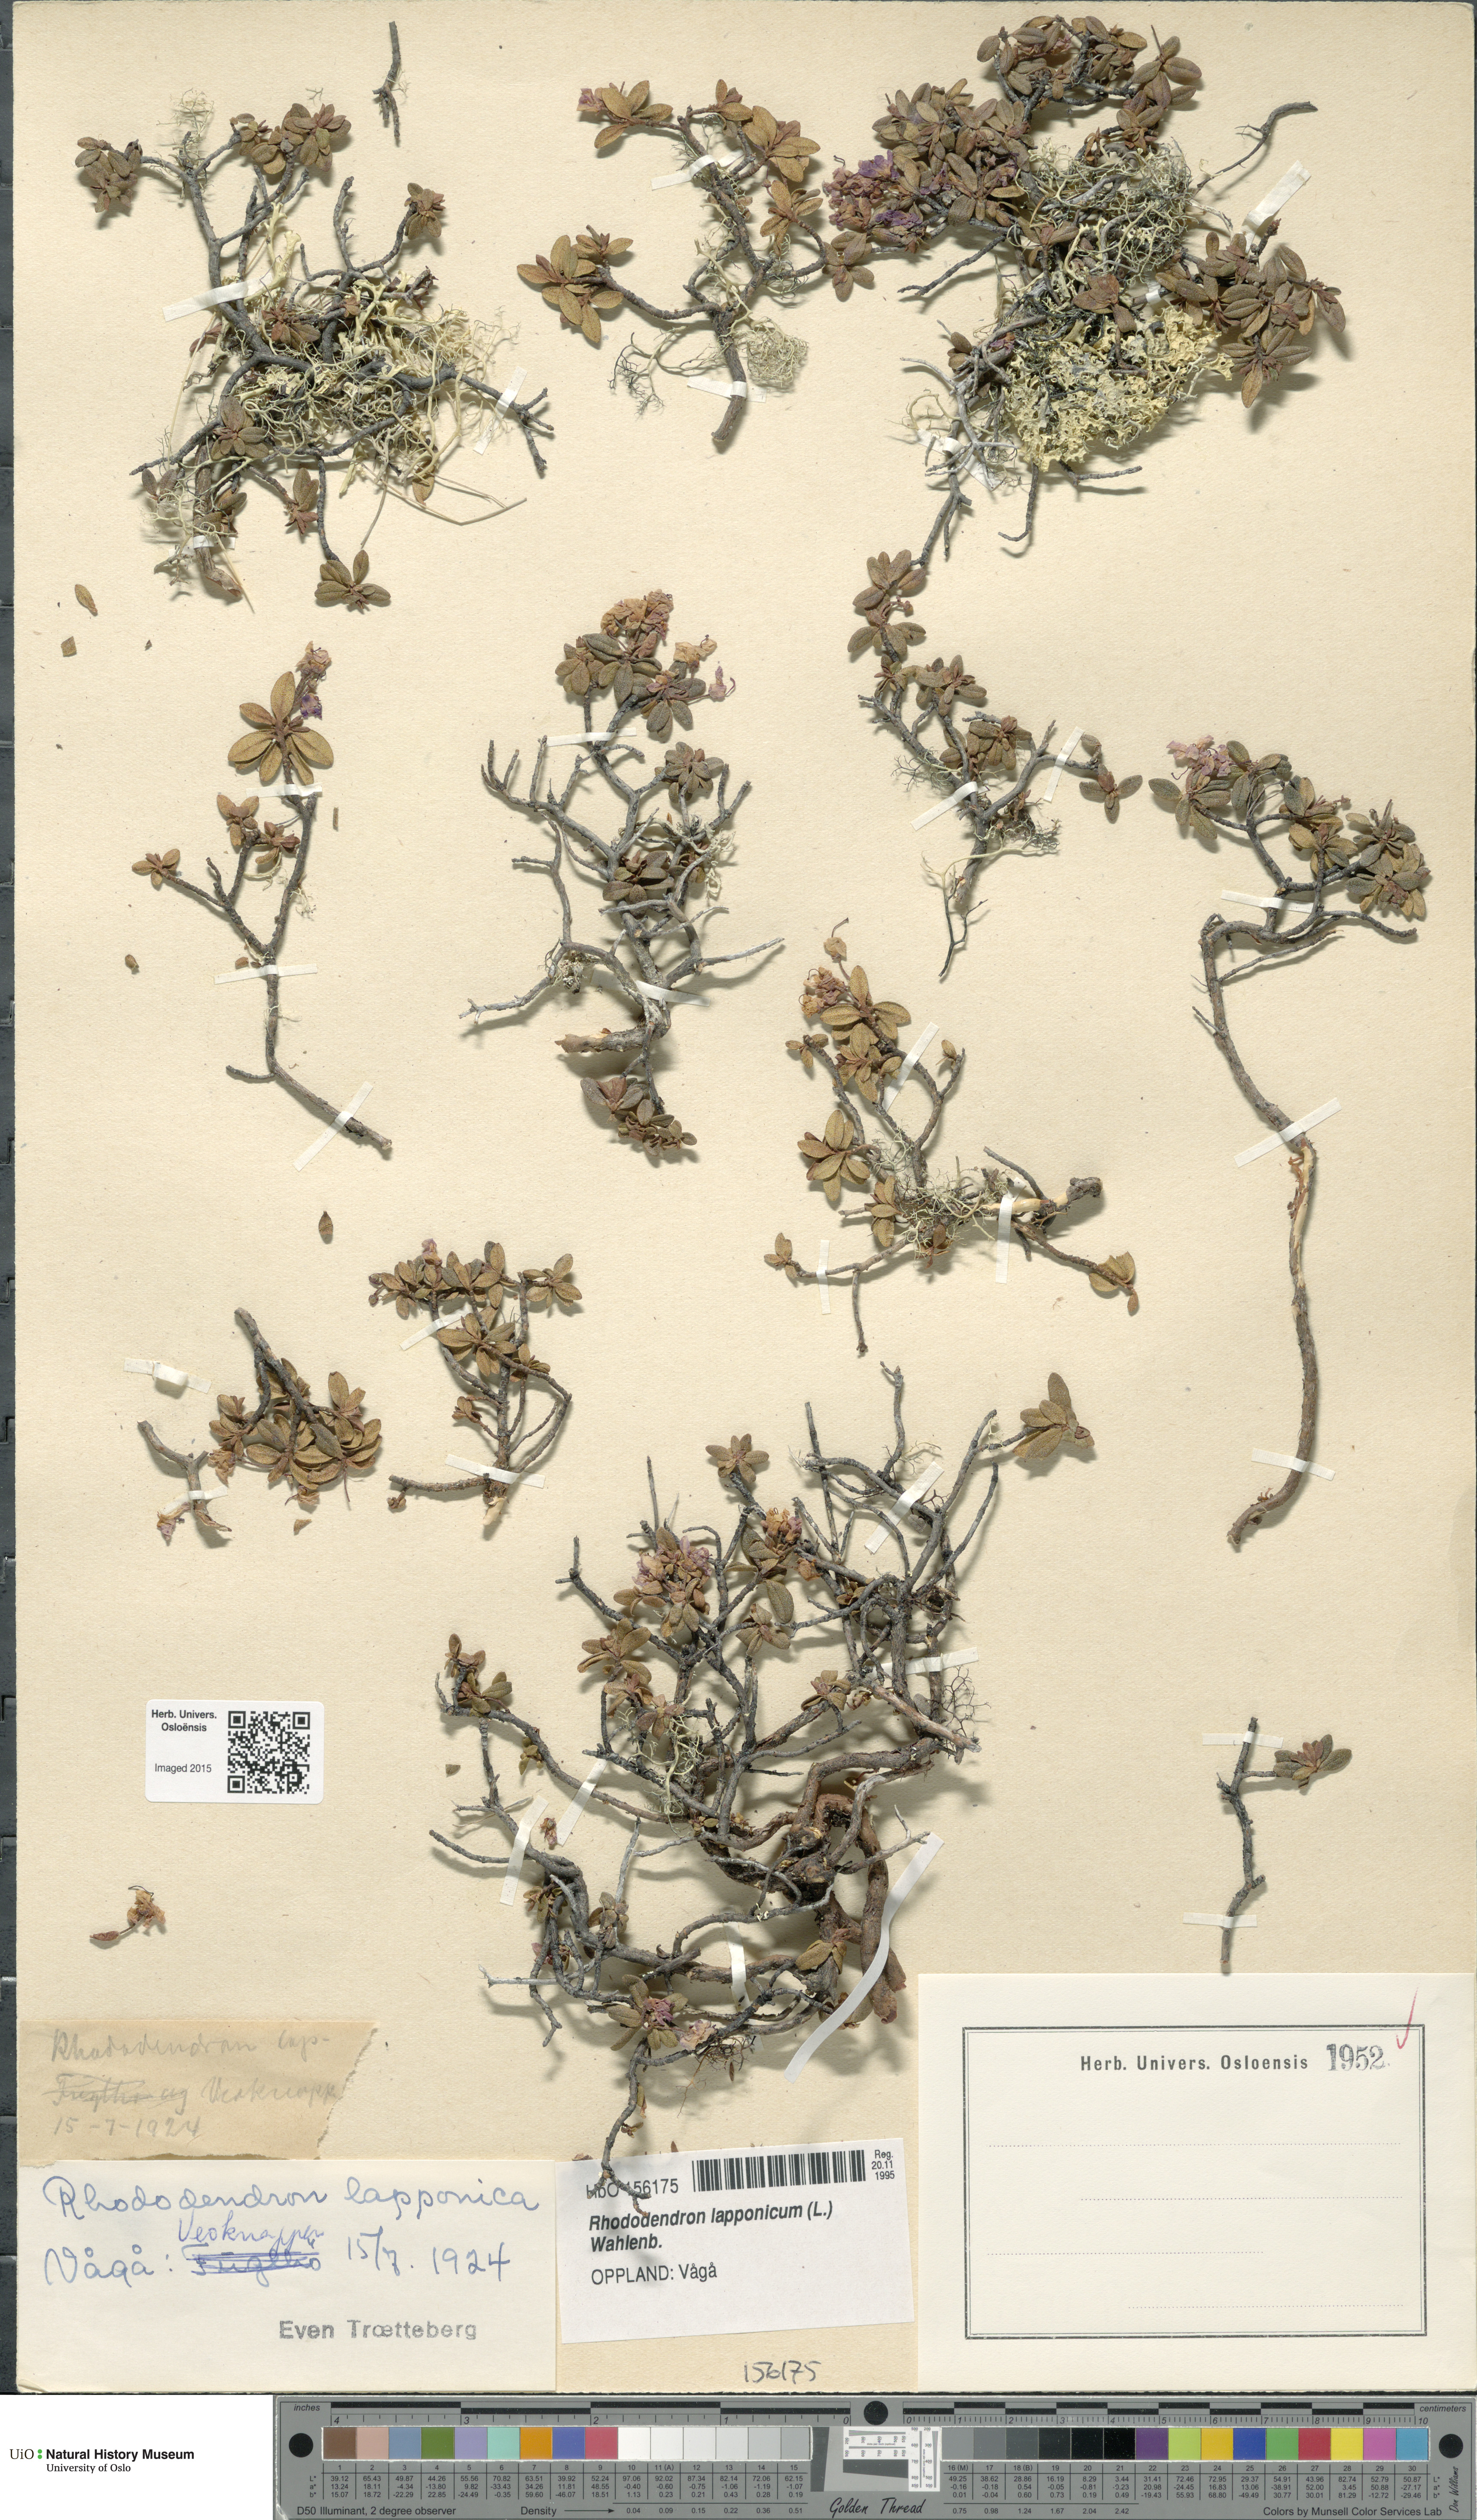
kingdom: Plantae
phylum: Tracheophyta
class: Magnoliopsida
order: Ericales
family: Ericaceae
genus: Rhododendron
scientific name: Rhododendron lapponicum
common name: Lapland rhododendron
